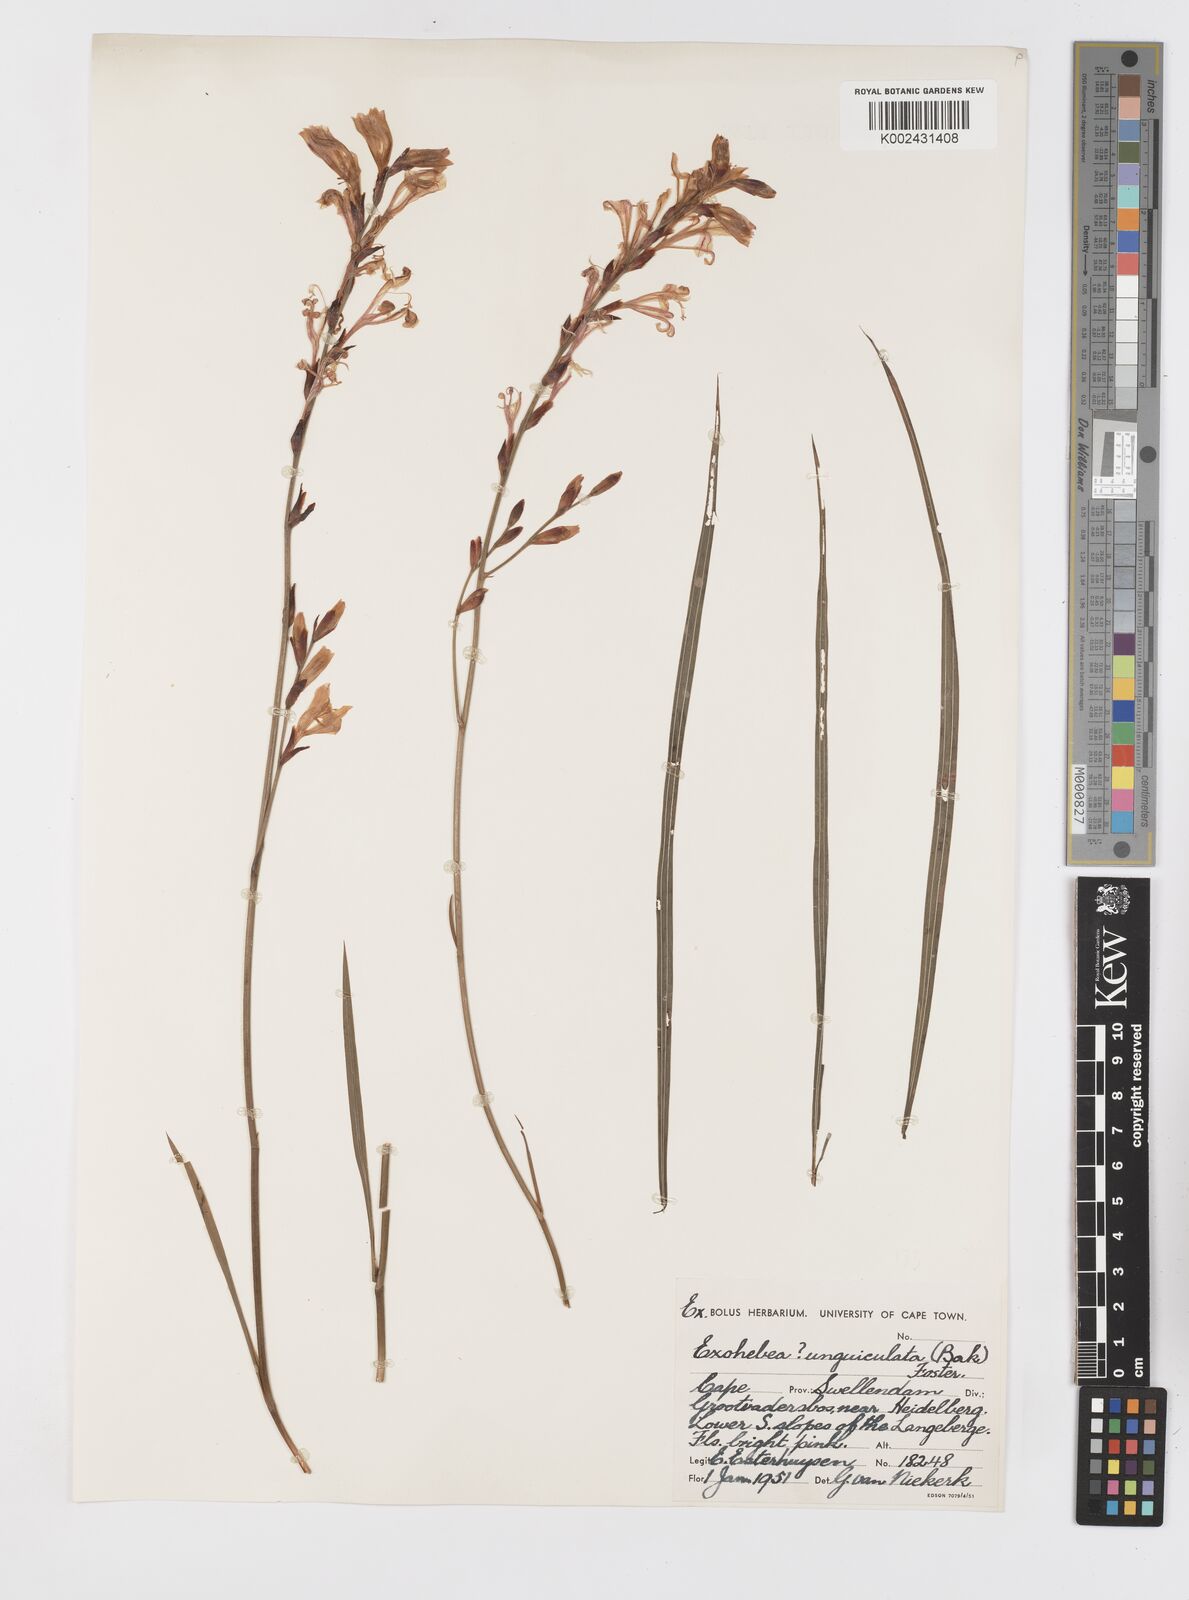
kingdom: Plantae
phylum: Tracheophyta
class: Liliopsida
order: Asparagales
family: Iridaceae
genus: Tritoniopsis
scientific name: Tritoniopsis unguicularis
